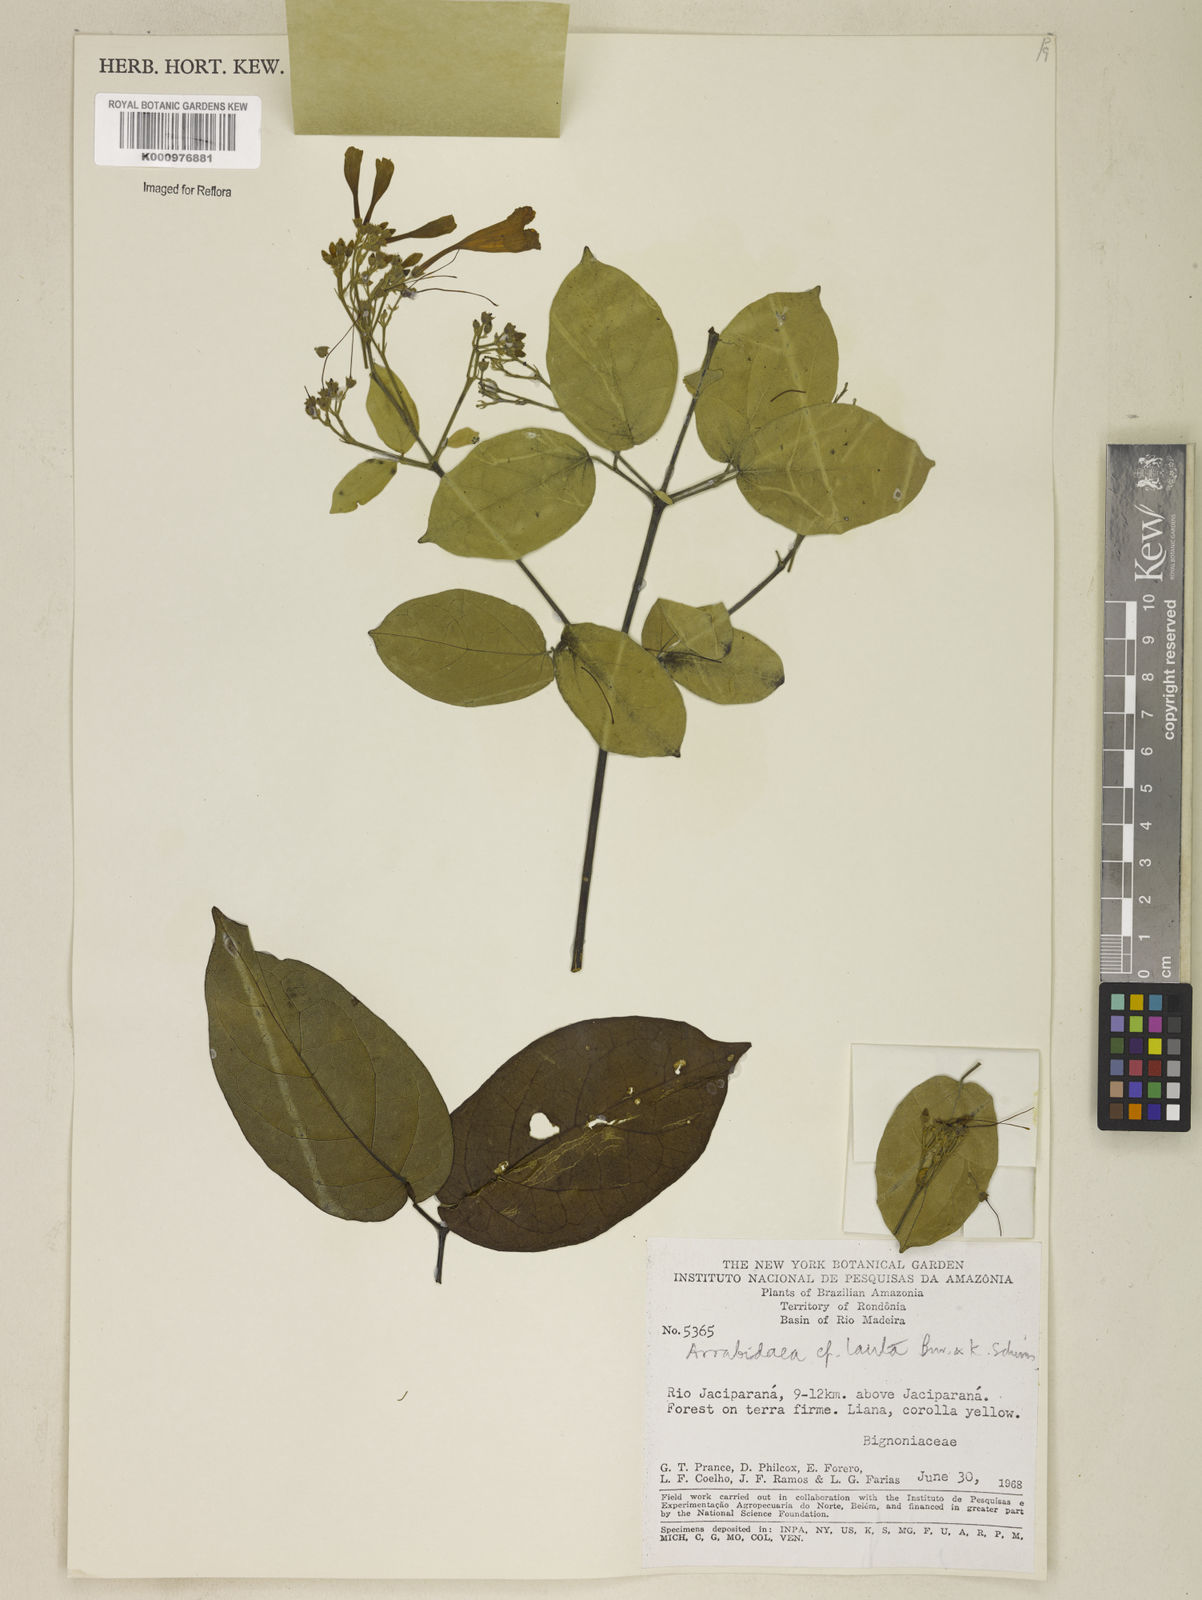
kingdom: Plantae
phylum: Tracheophyta
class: Magnoliopsida
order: Lamiales
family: Bignoniaceae
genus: Fridericia
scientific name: Fridericia lauta
